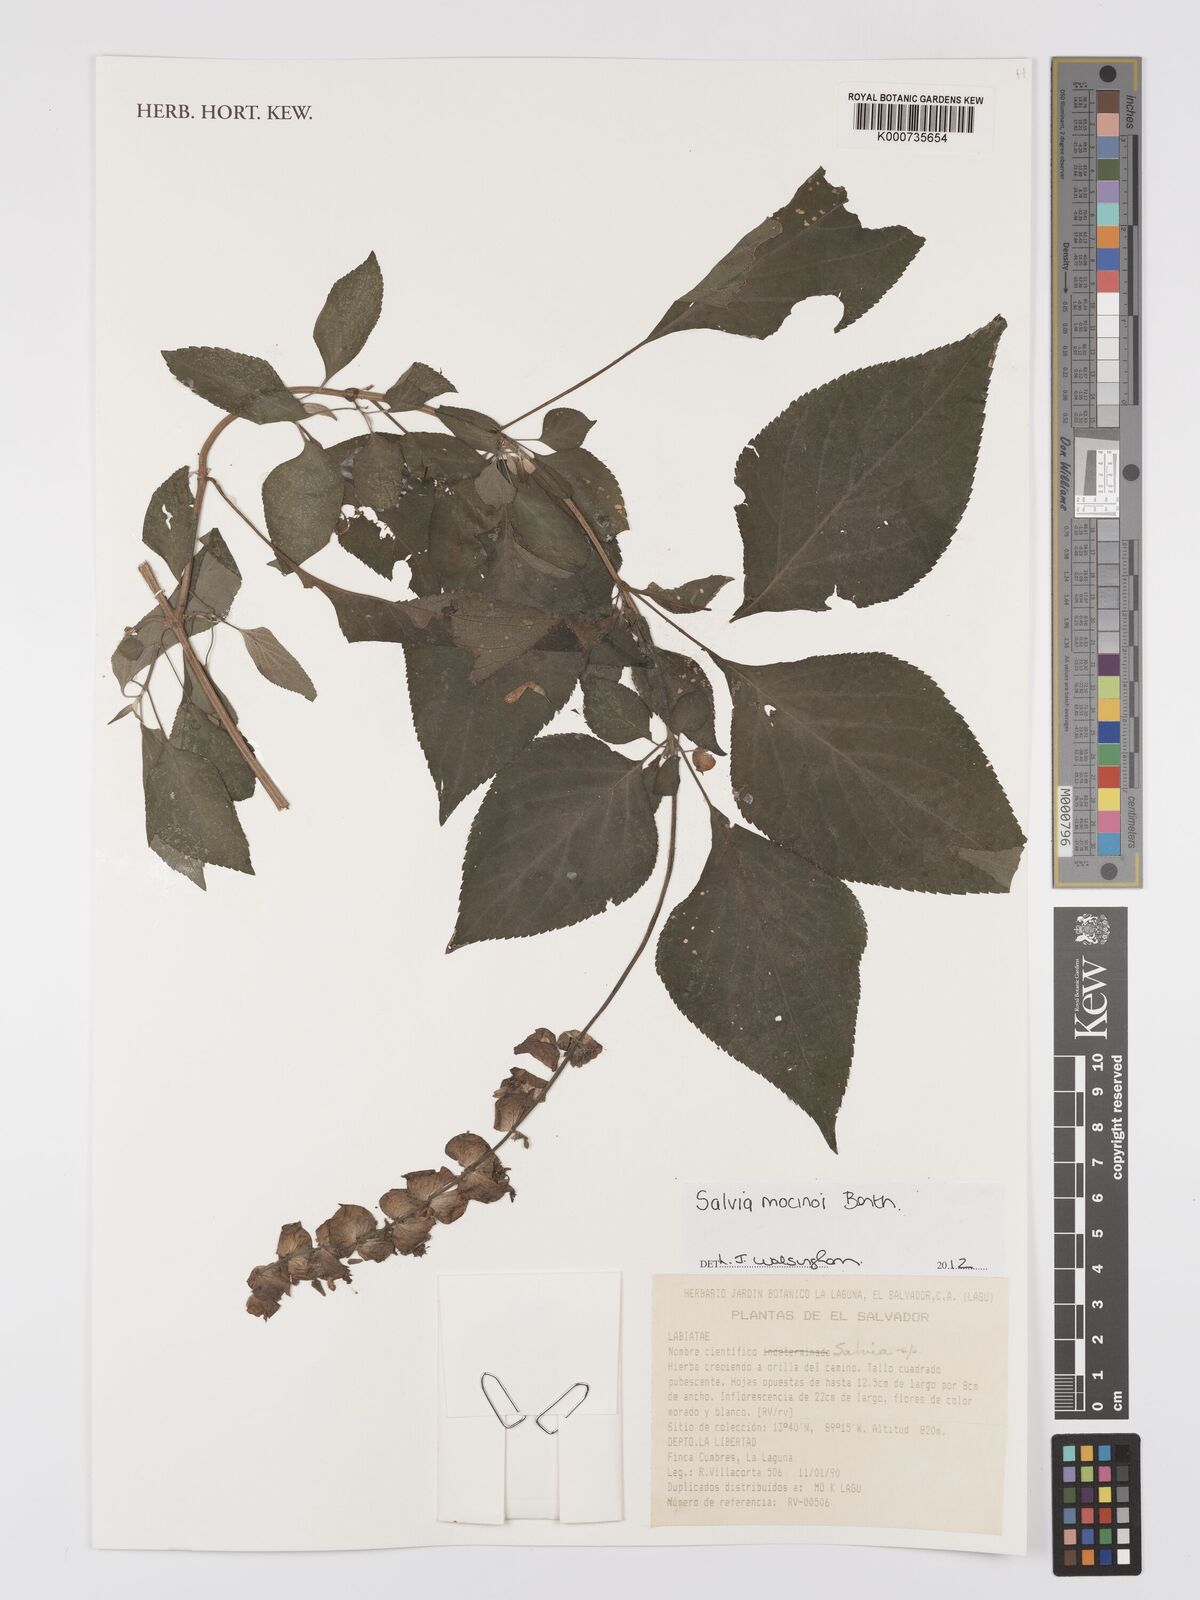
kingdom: Plantae
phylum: Tracheophyta
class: Magnoliopsida
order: Lamiales
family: Lamiaceae
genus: Salvia
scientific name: Salvia mocinoi
